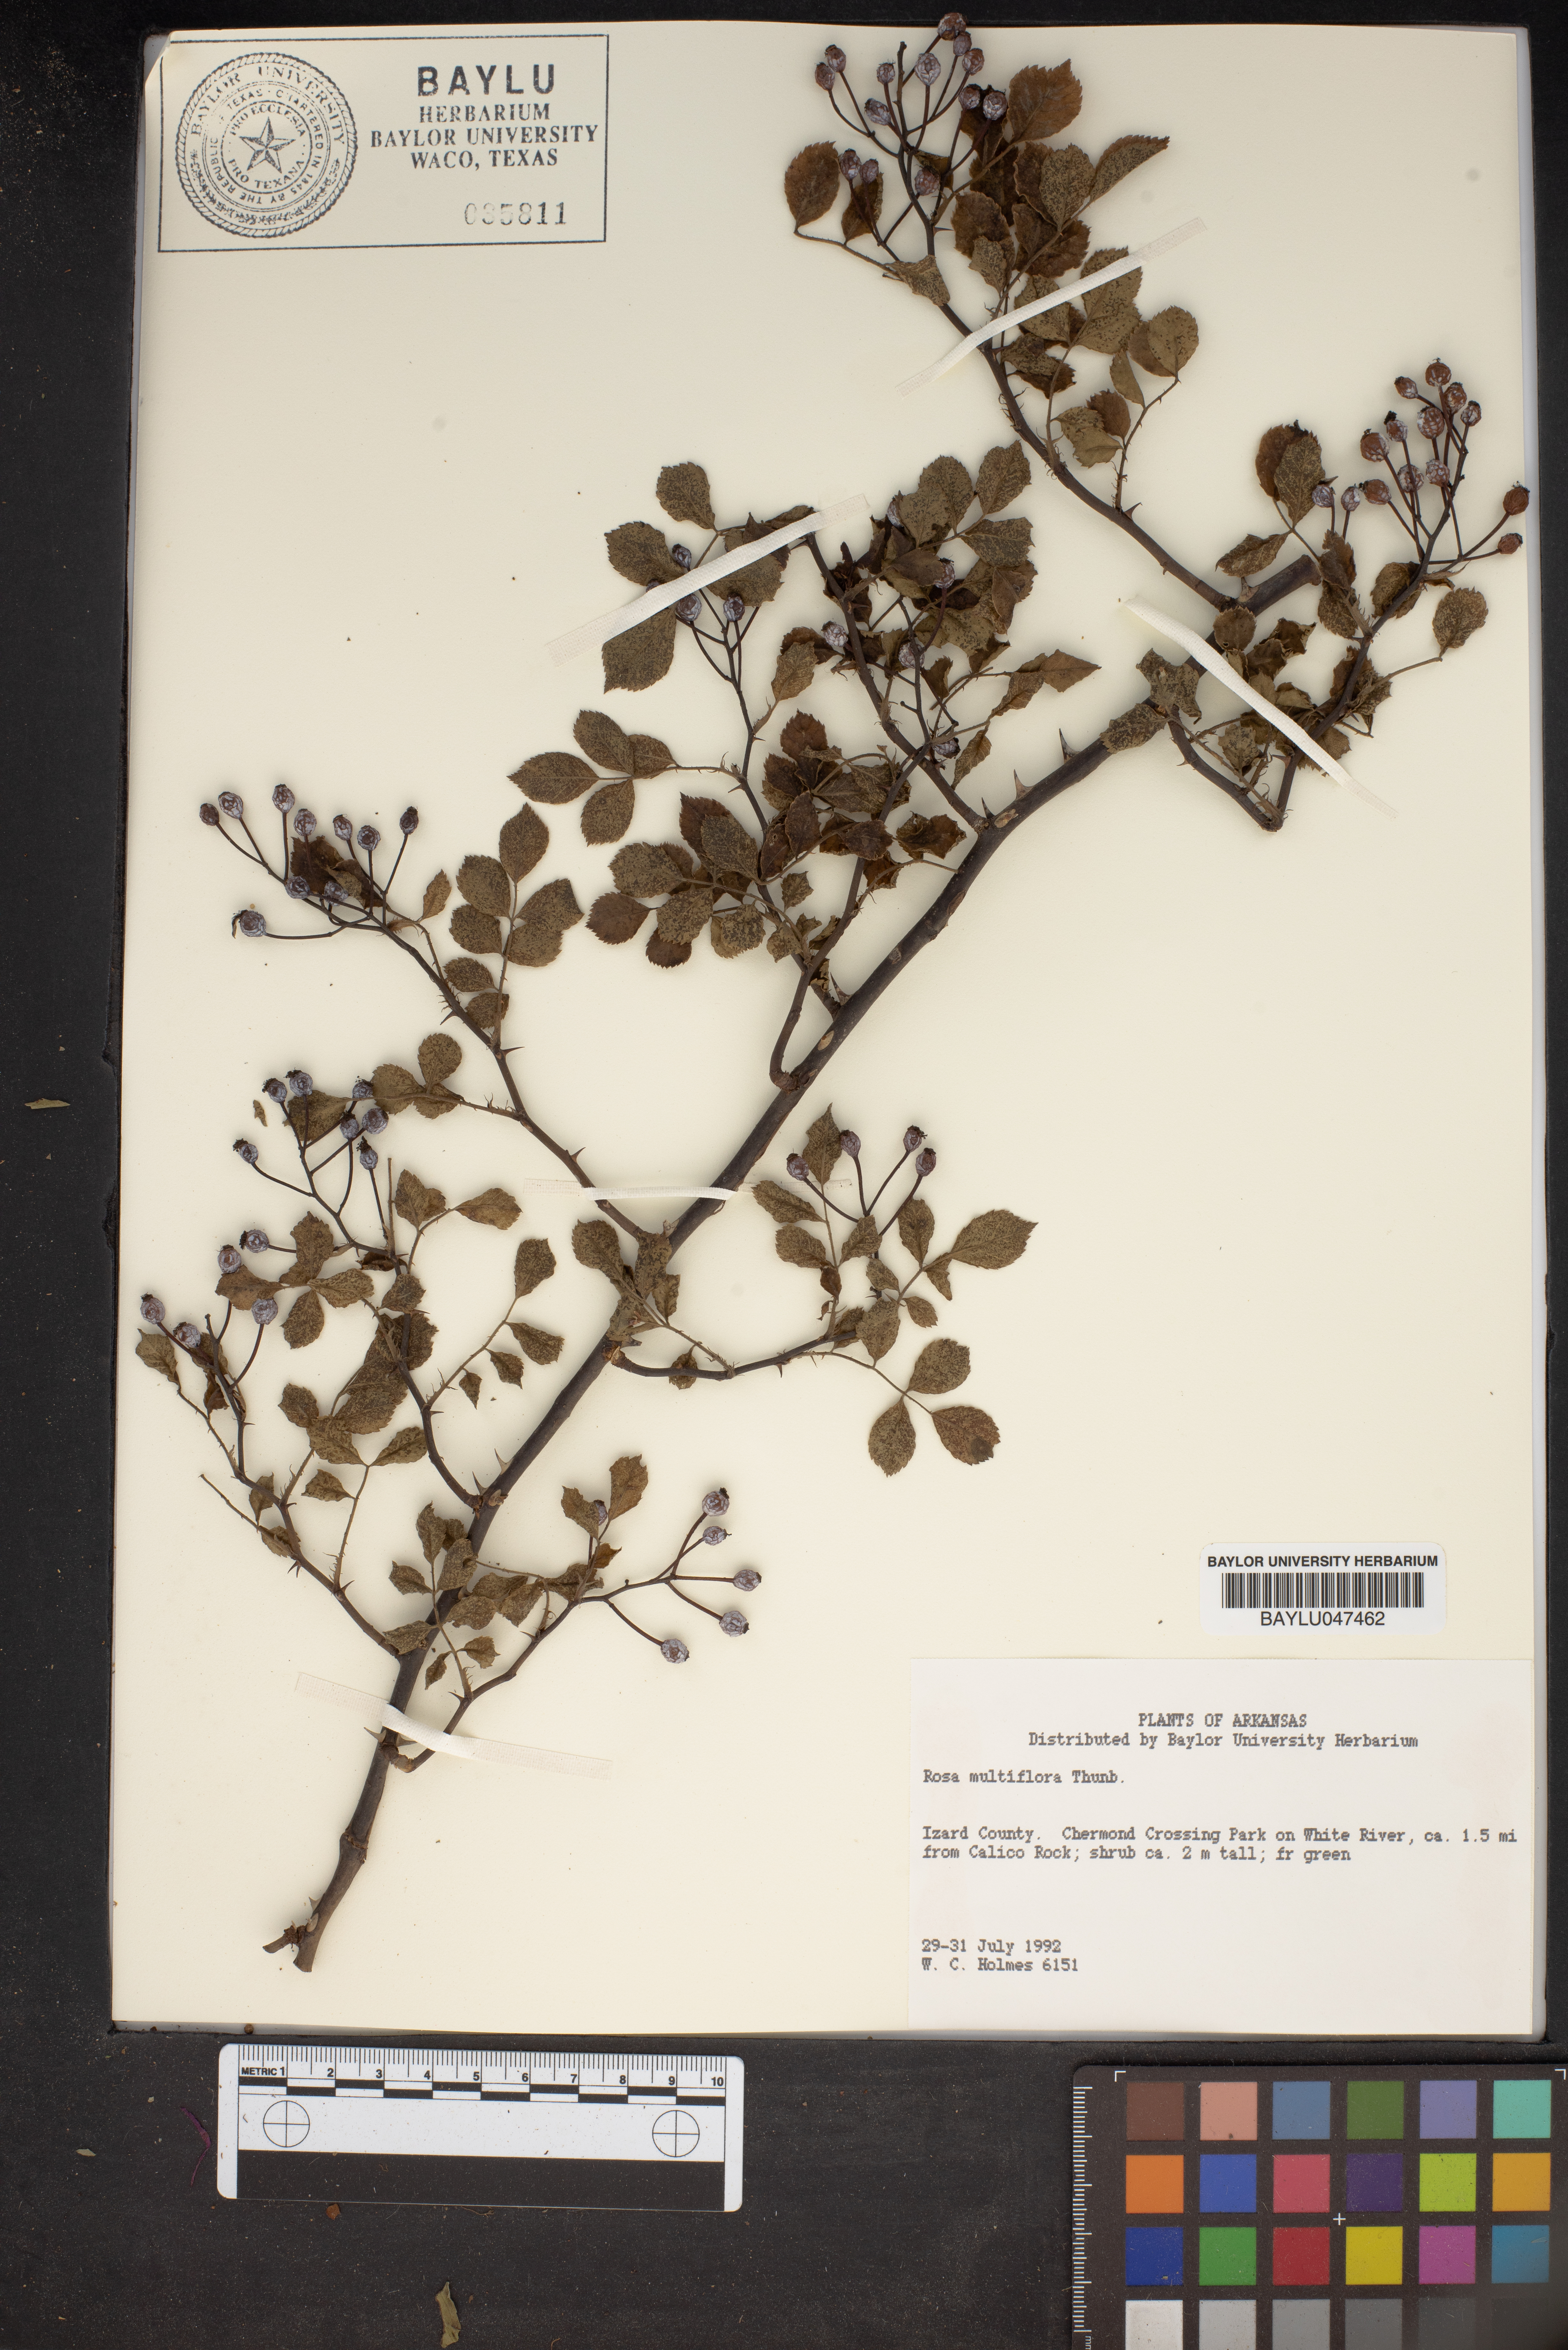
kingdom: Plantae
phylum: Tracheophyta
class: Magnoliopsida
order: Rosales
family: Rosaceae
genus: Rosa
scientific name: Rosa multiflora
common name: Multiflora rose
